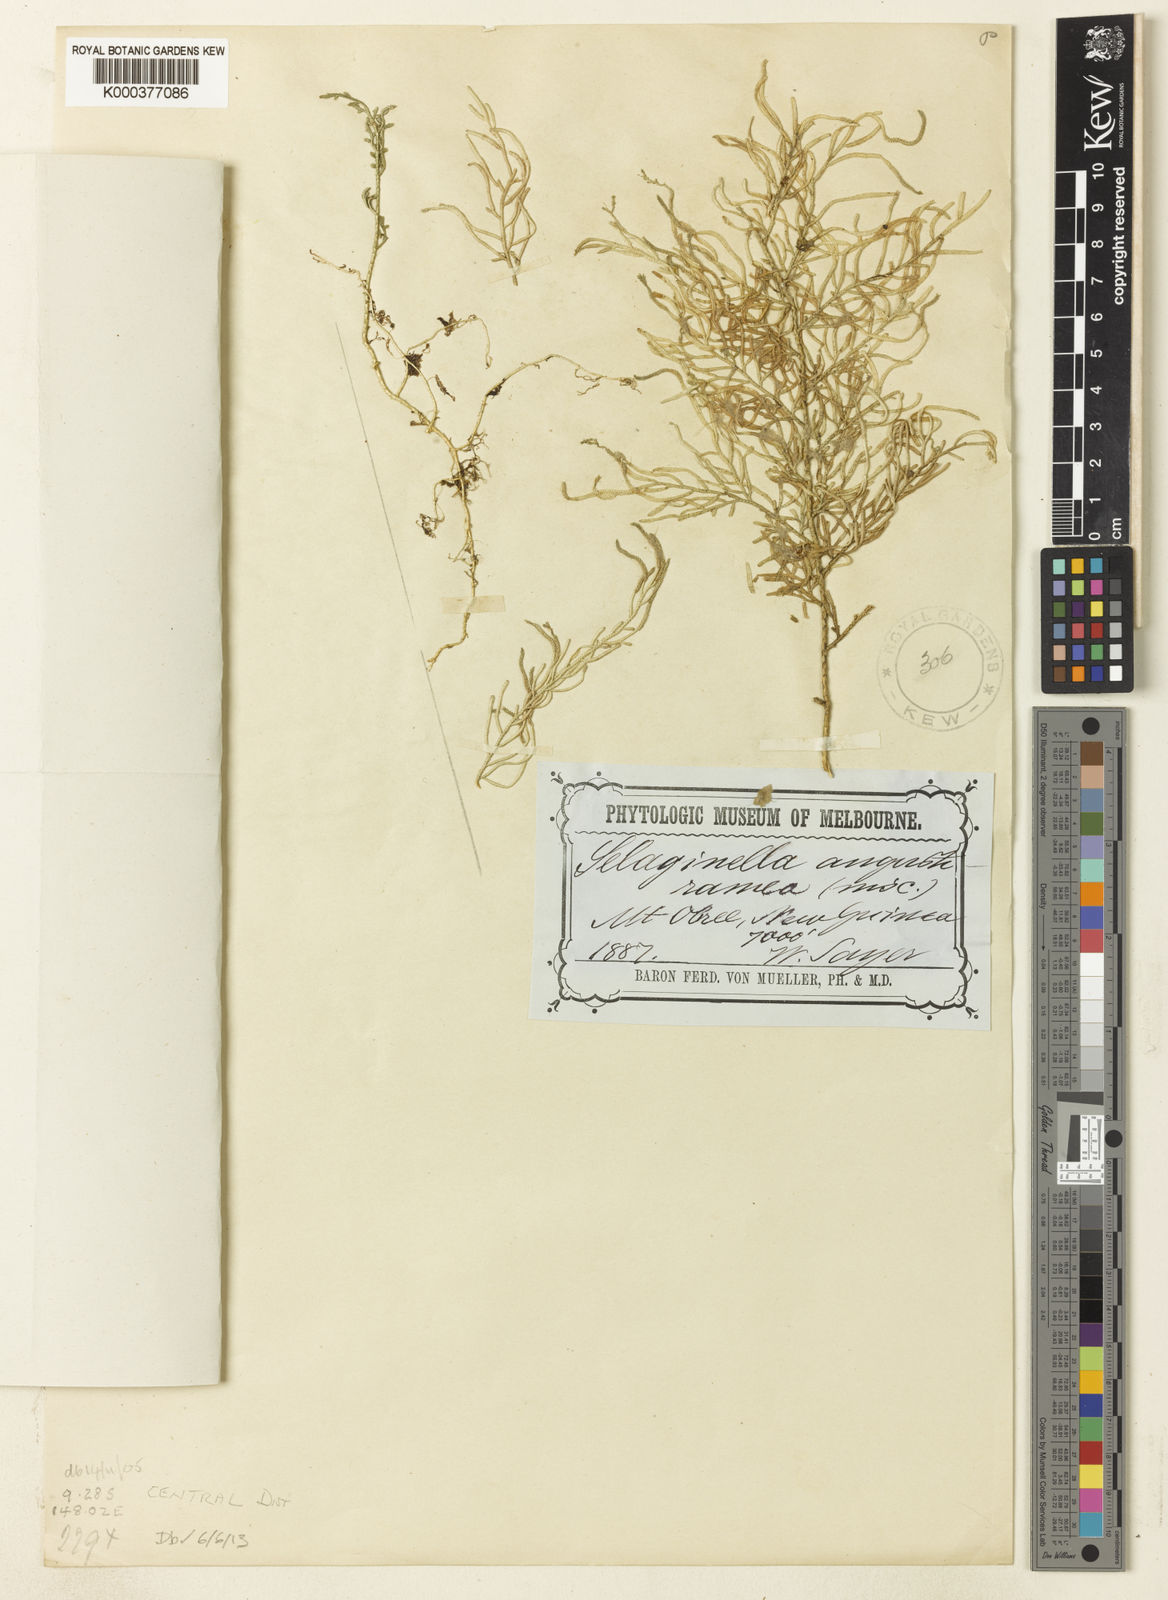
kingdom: Plantae
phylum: Tracheophyta
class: Lycopodiopsida
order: Selaginellales
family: Selaginellaceae
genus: Selaginella
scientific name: Selaginella
